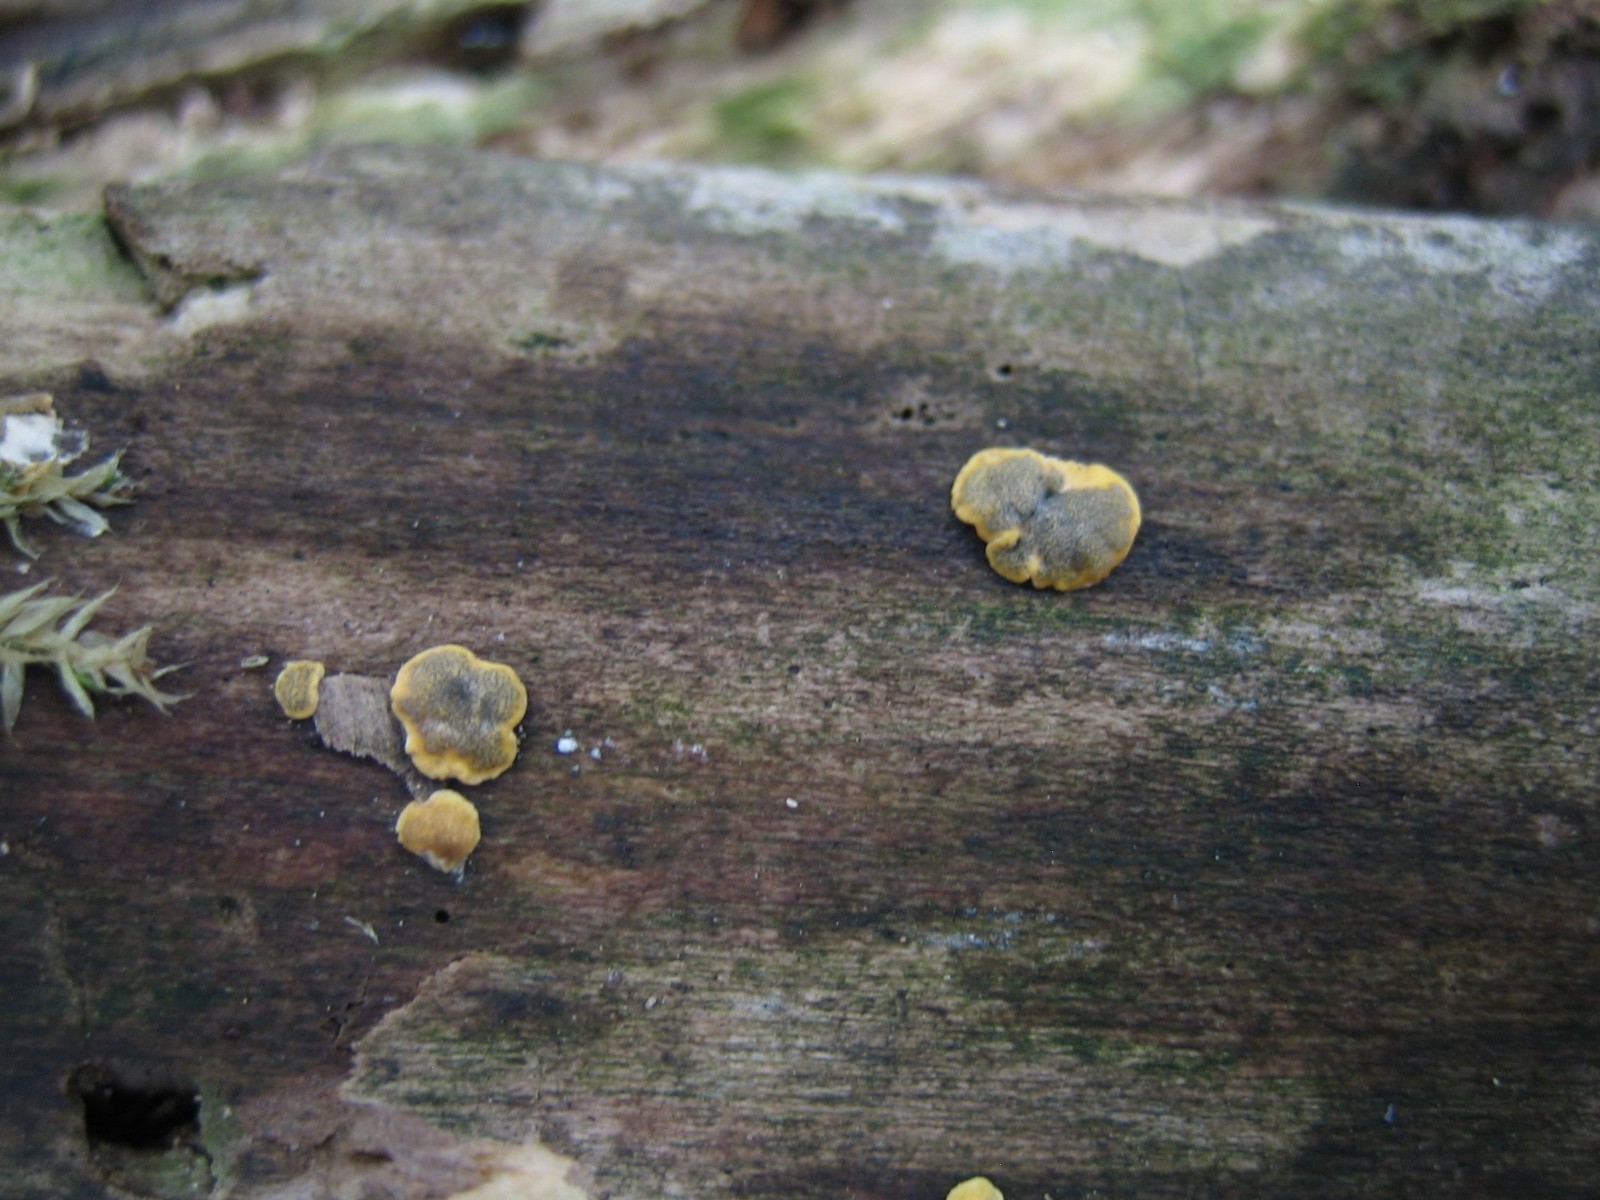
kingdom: Fungi
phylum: Ascomycota
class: Sordariomycetes
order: Hypocreales
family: Hypocreaceae
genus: Trichoderma
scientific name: Trichoderma aureoviride
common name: æggegul kødkerne
